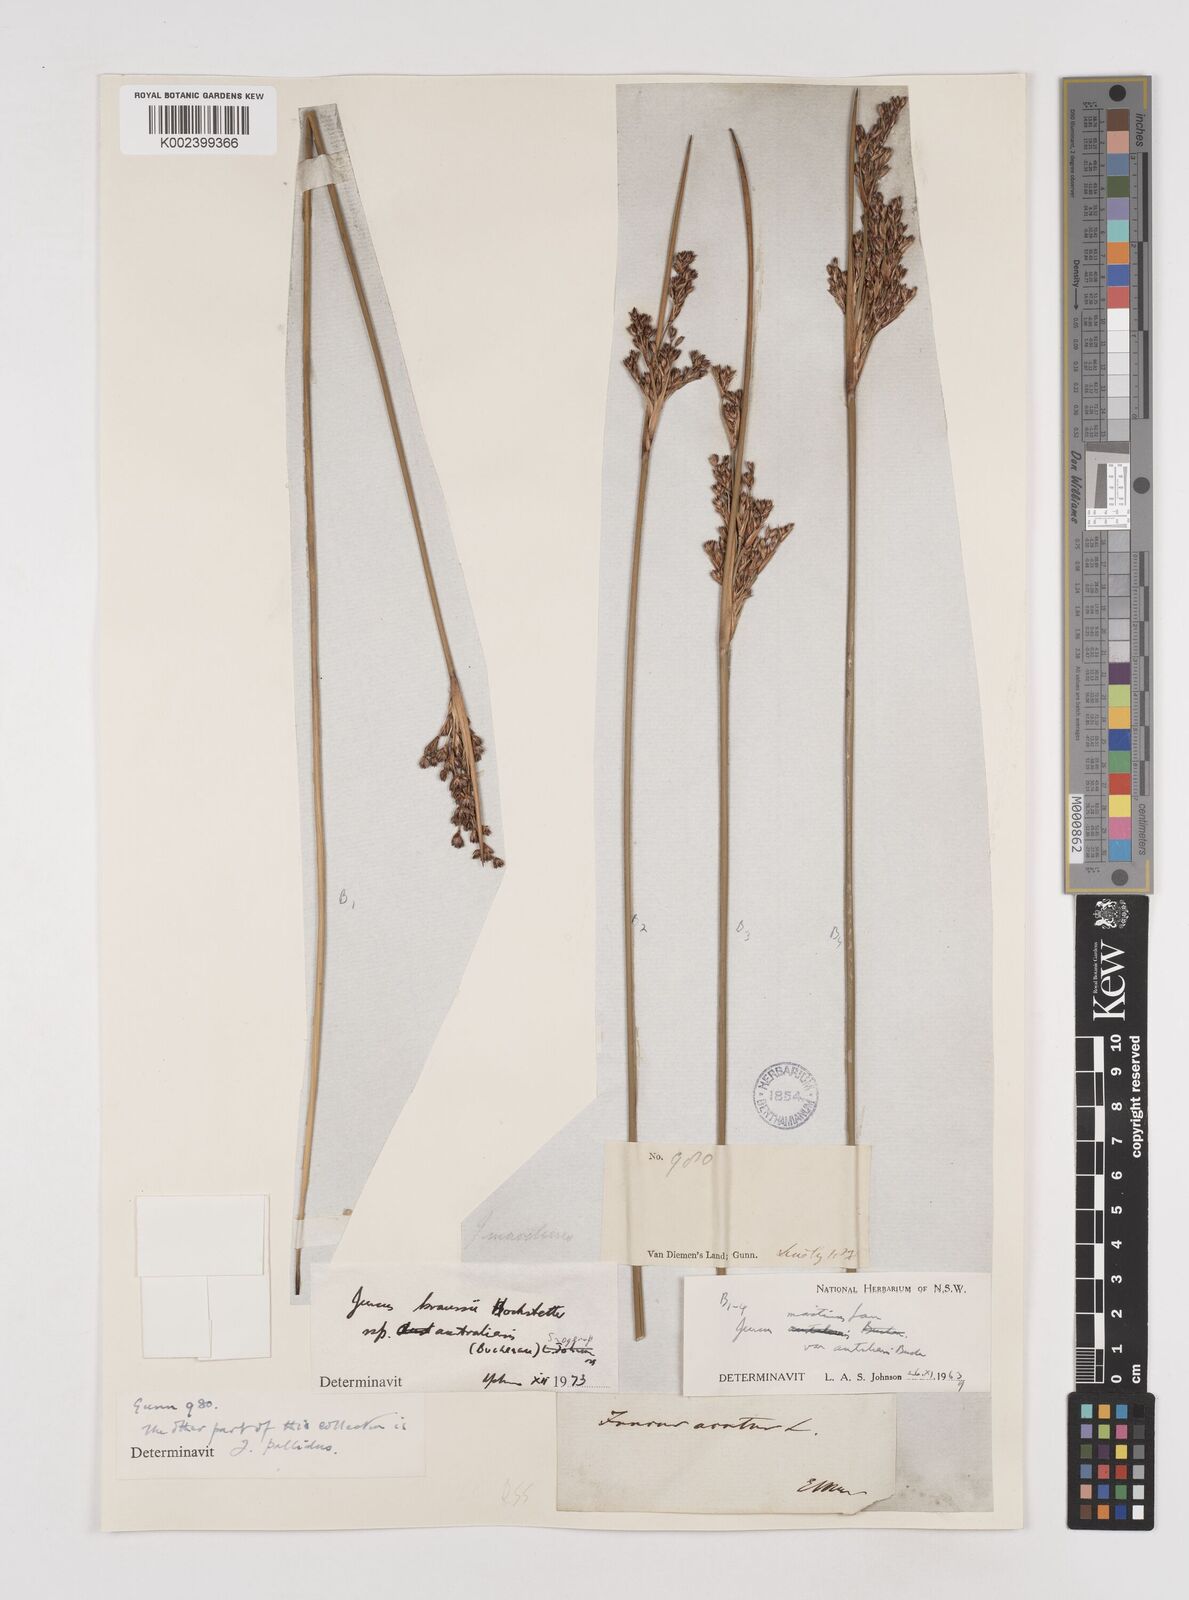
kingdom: Plantae
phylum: Tracheophyta
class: Liliopsida
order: Poales
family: Juncaceae
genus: Juncus
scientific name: Juncus kraussii
